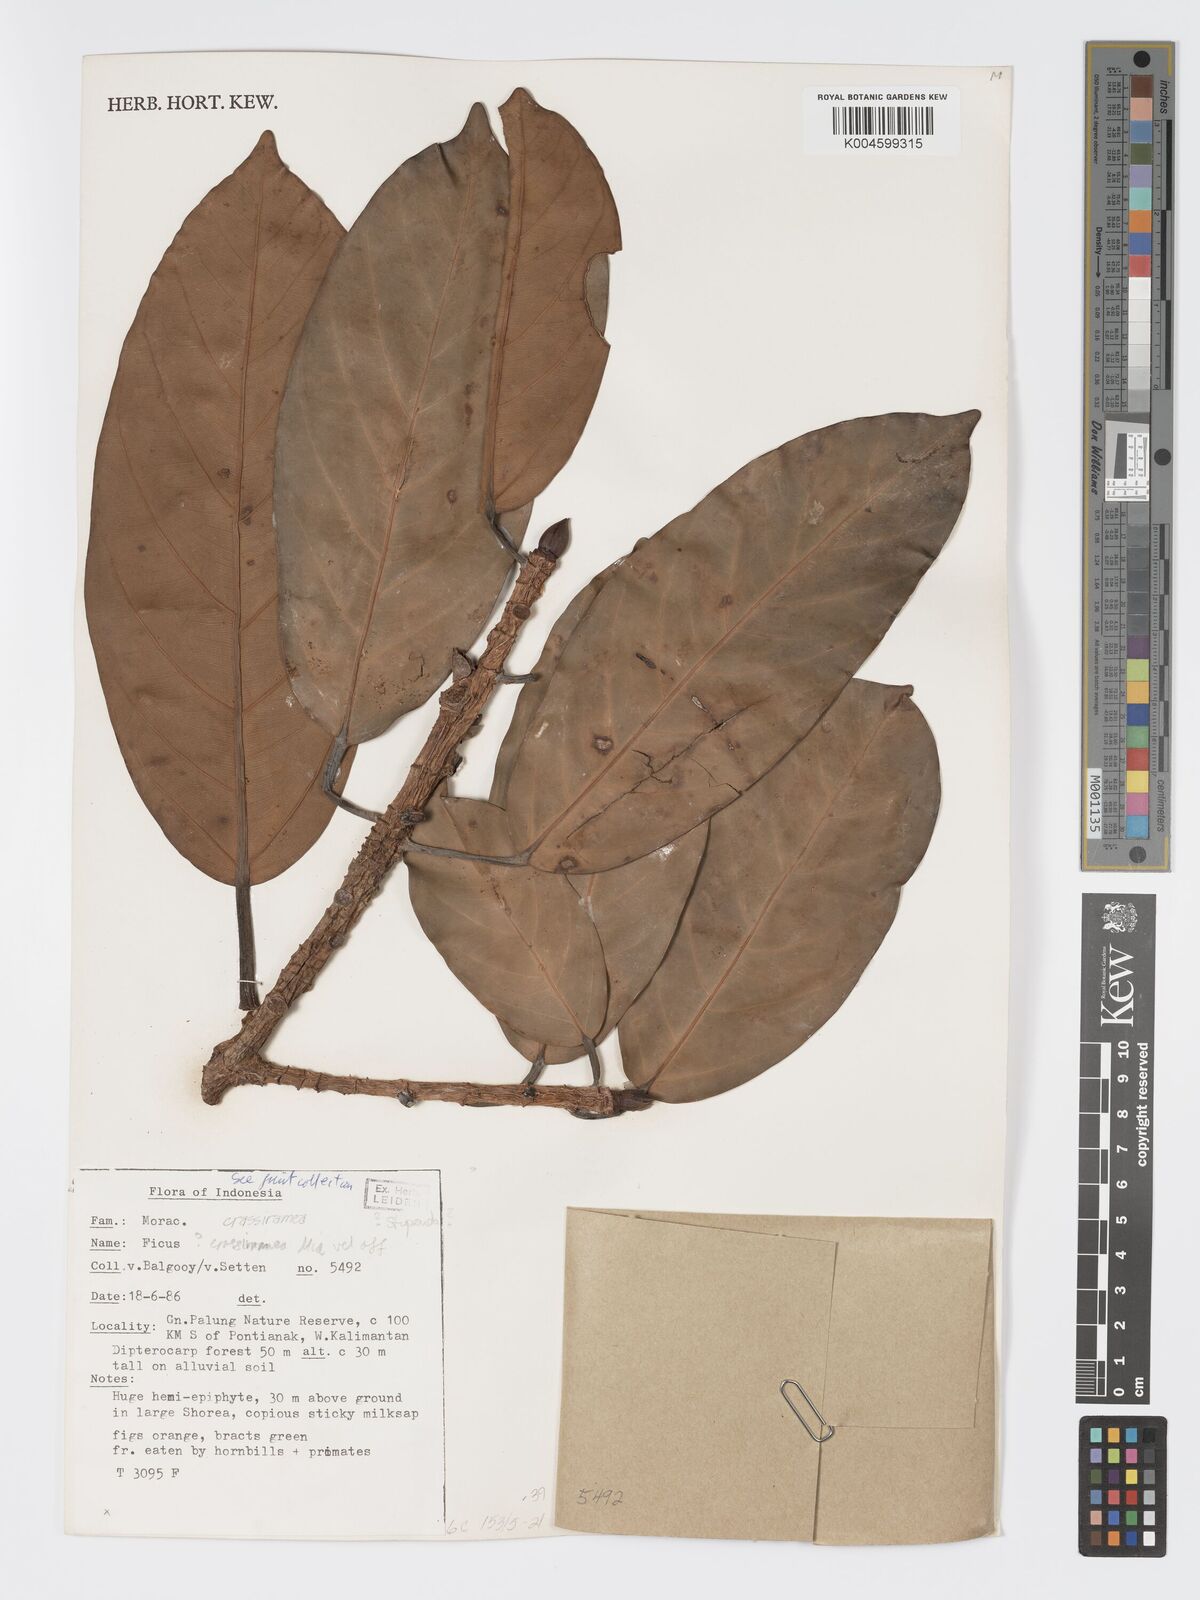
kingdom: Plantae
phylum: Tracheophyta
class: Magnoliopsida
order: Rosales
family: Moraceae
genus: Ficus
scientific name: Ficus crassiramea
